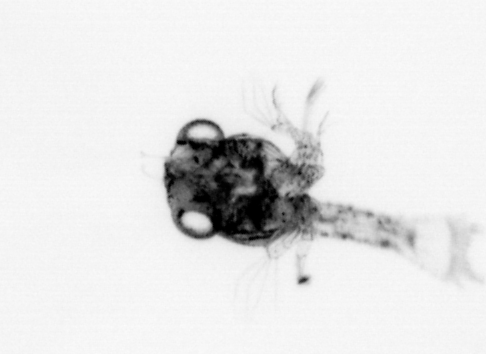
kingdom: Animalia
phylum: Arthropoda
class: Malacostraca
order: Decapoda
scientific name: Decapoda
